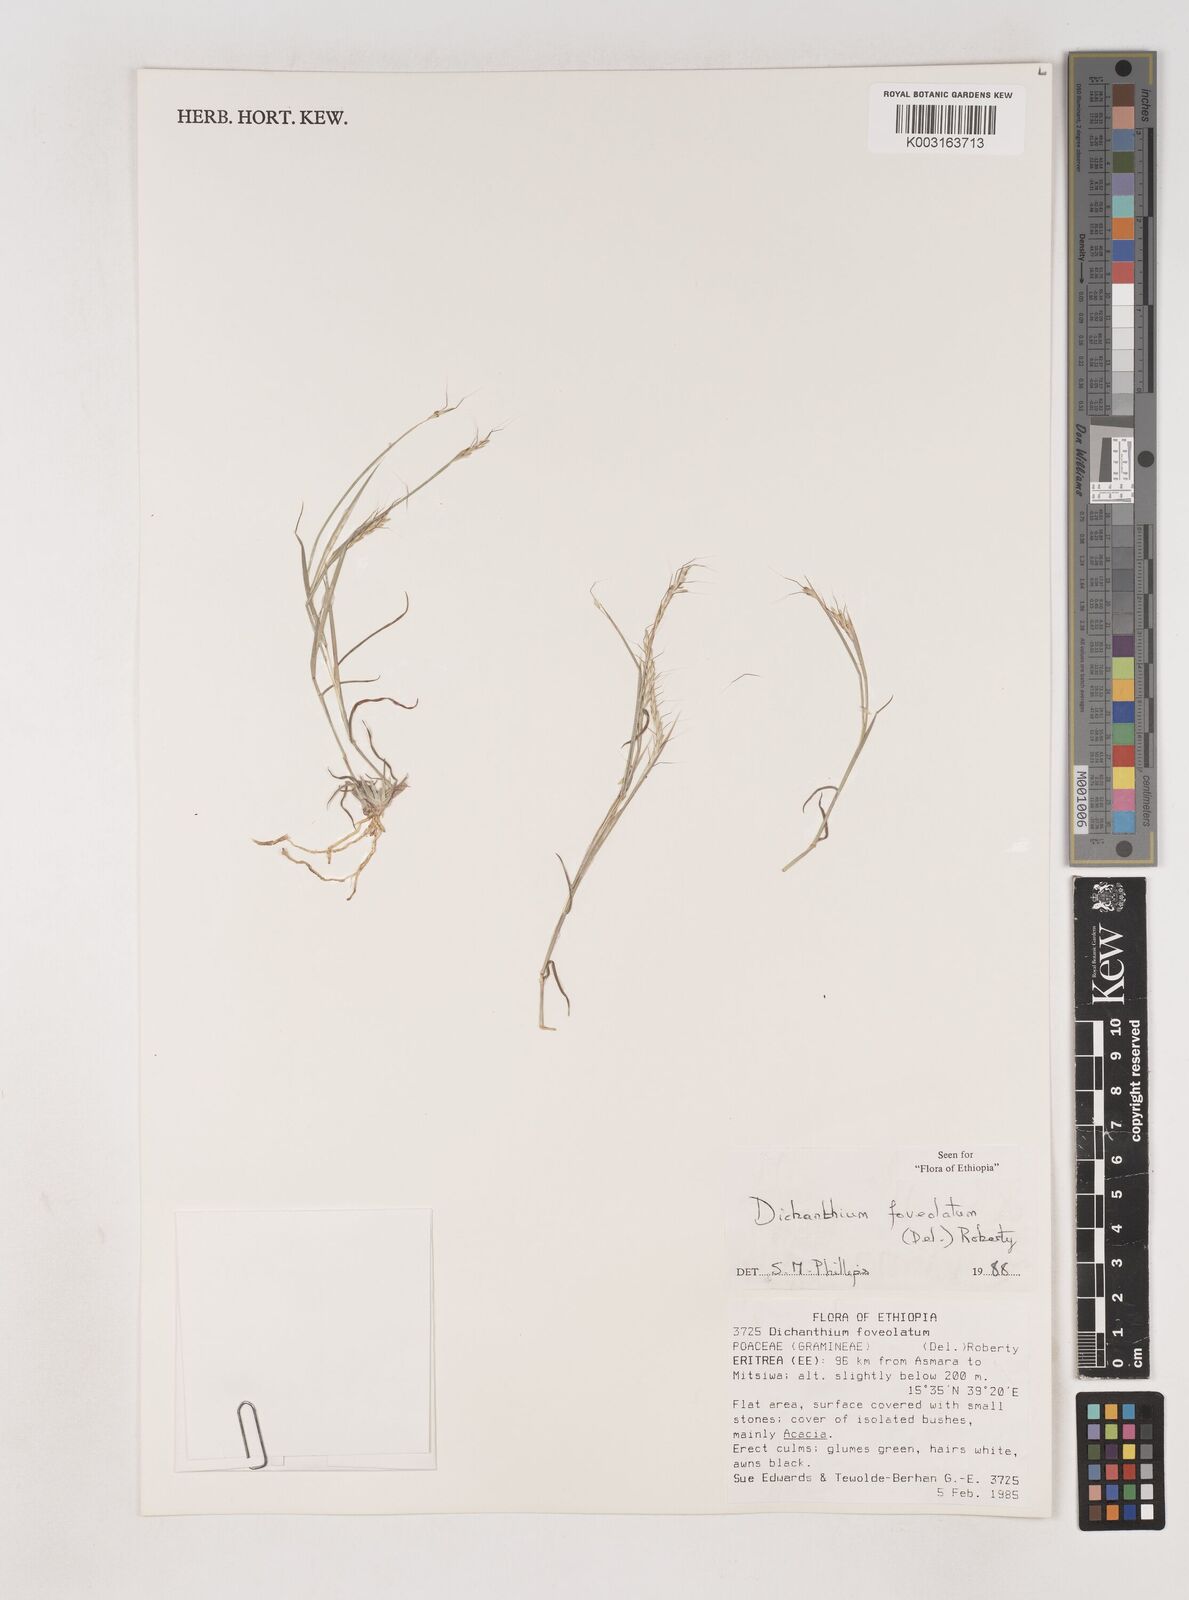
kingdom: Plantae
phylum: Tracheophyta
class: Liliopsida
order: Poales
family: Poaceae
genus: Dichanthium
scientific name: Dichanthium foveolatum
